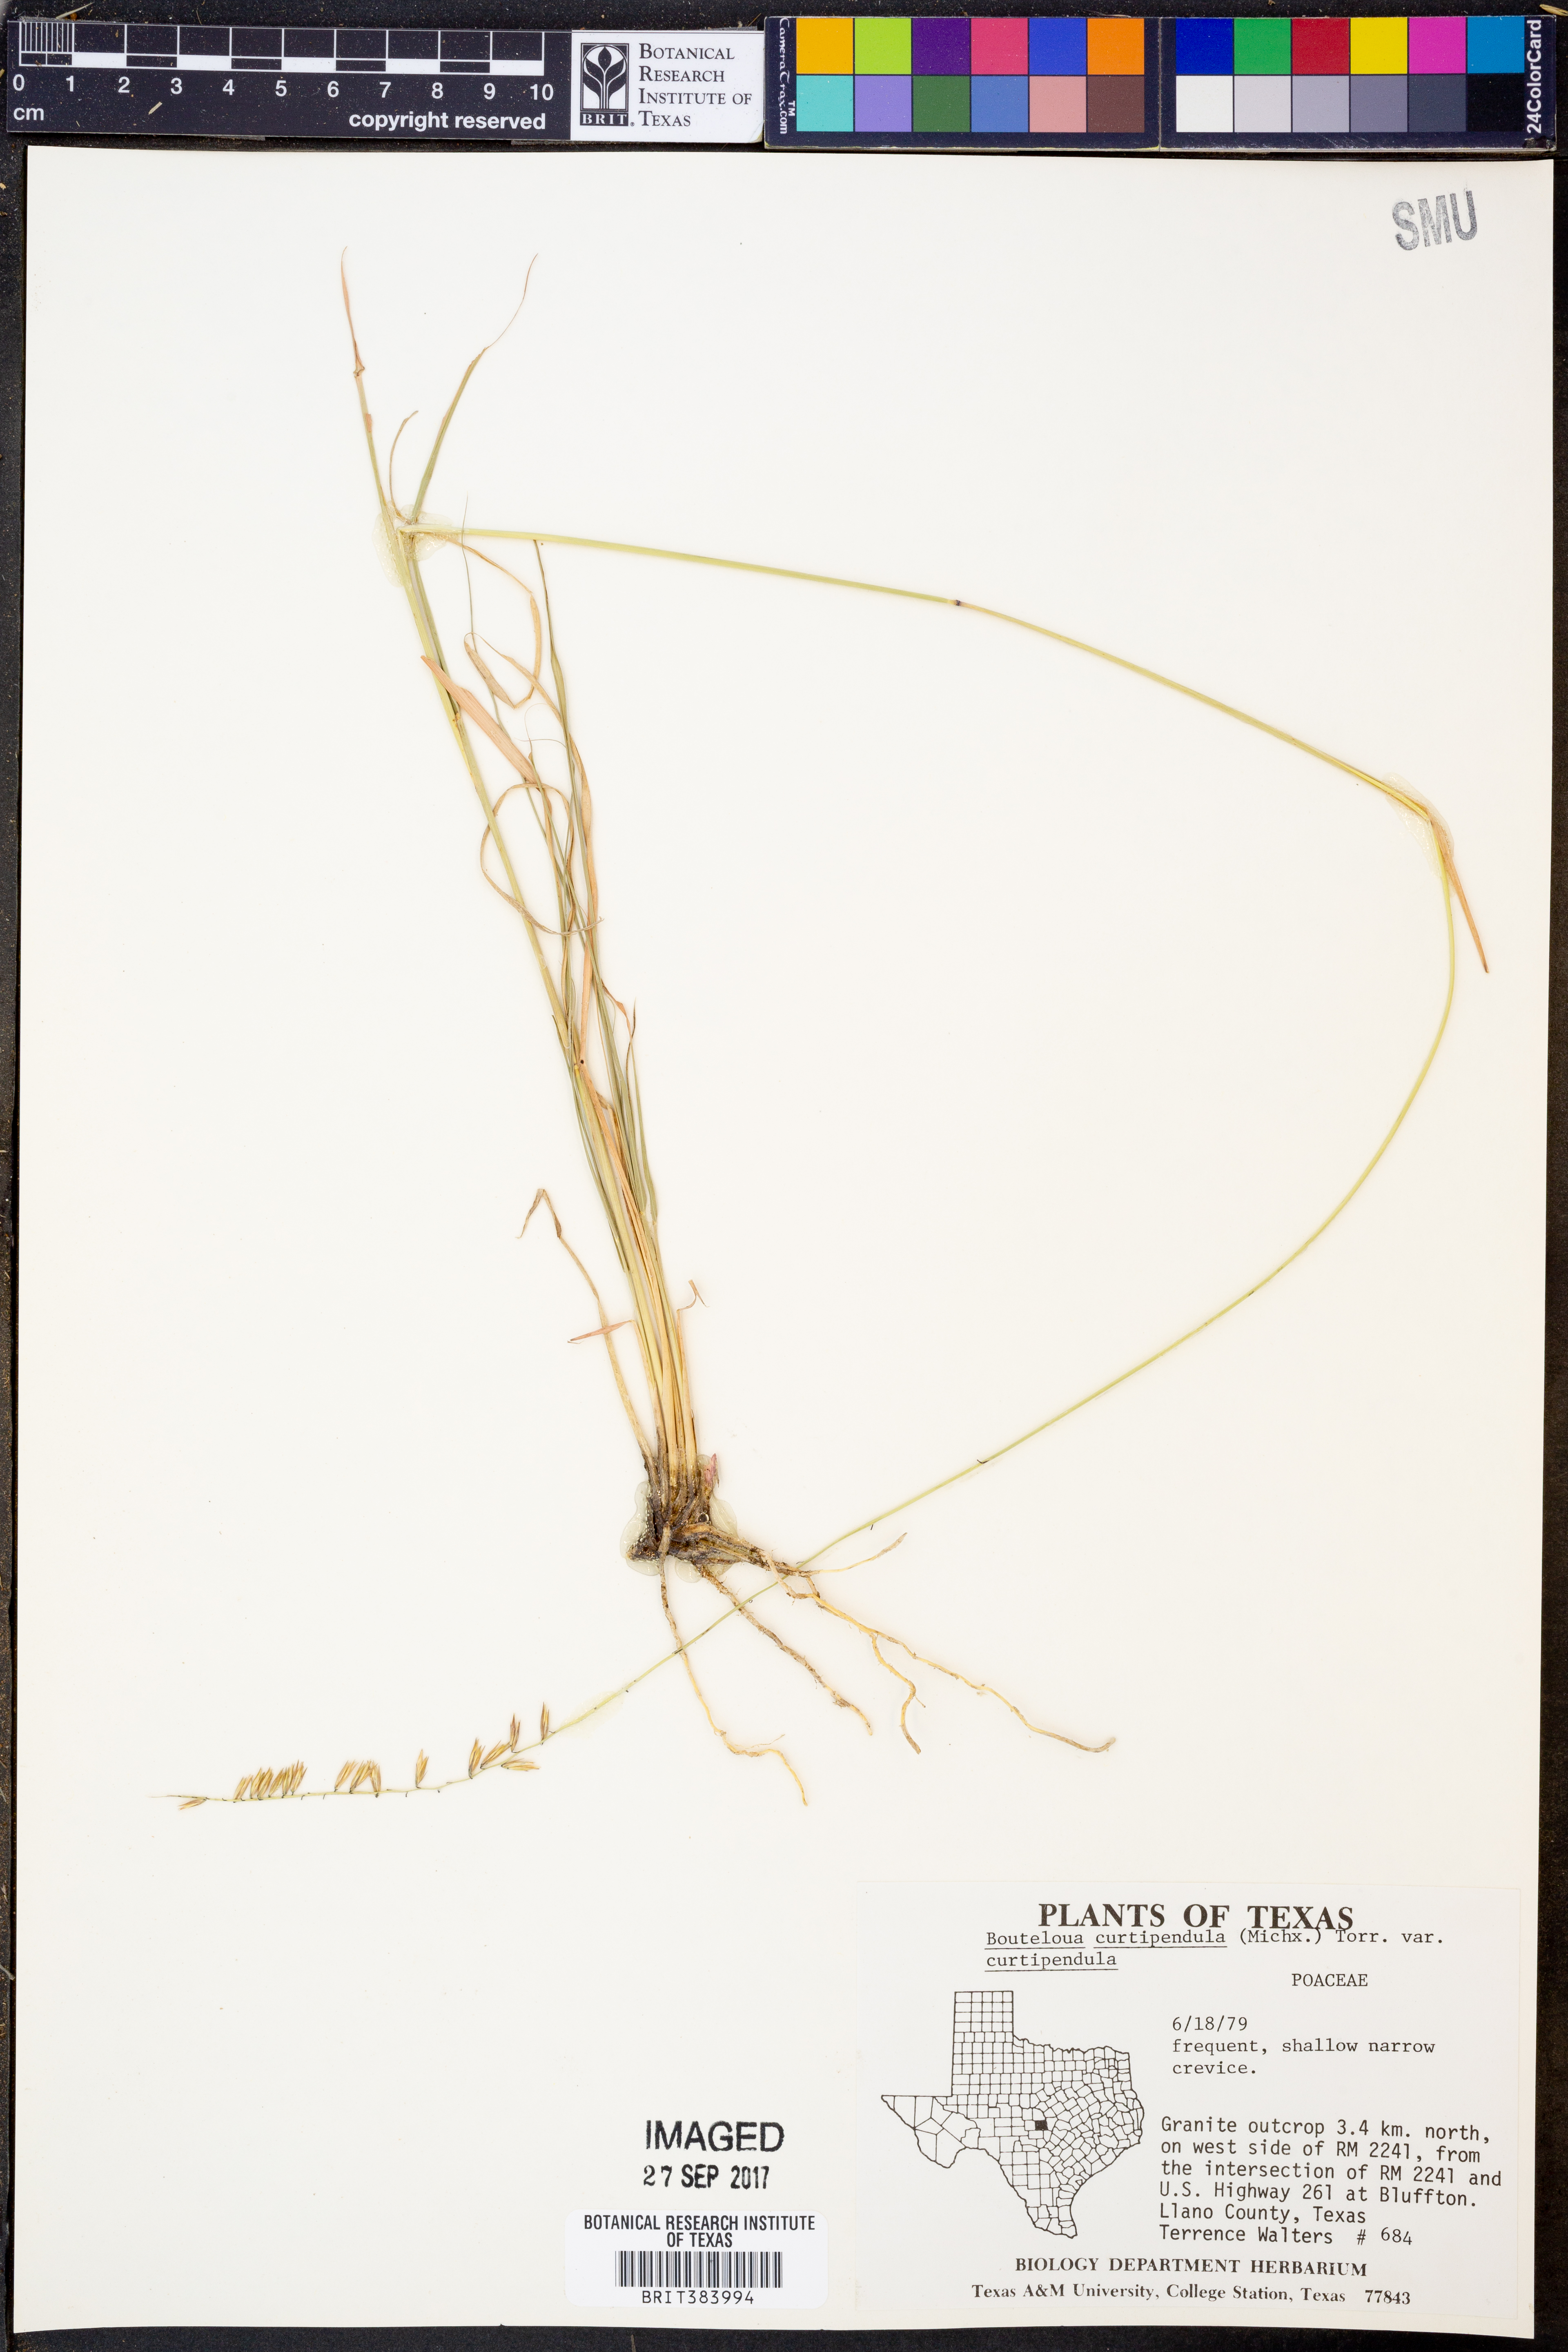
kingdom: Plantae
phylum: Tracheophyta
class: Liliopsida
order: Poales
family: Poaceae
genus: Bouteloua
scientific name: Bouteloua curtipendula
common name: Side-oats grama
